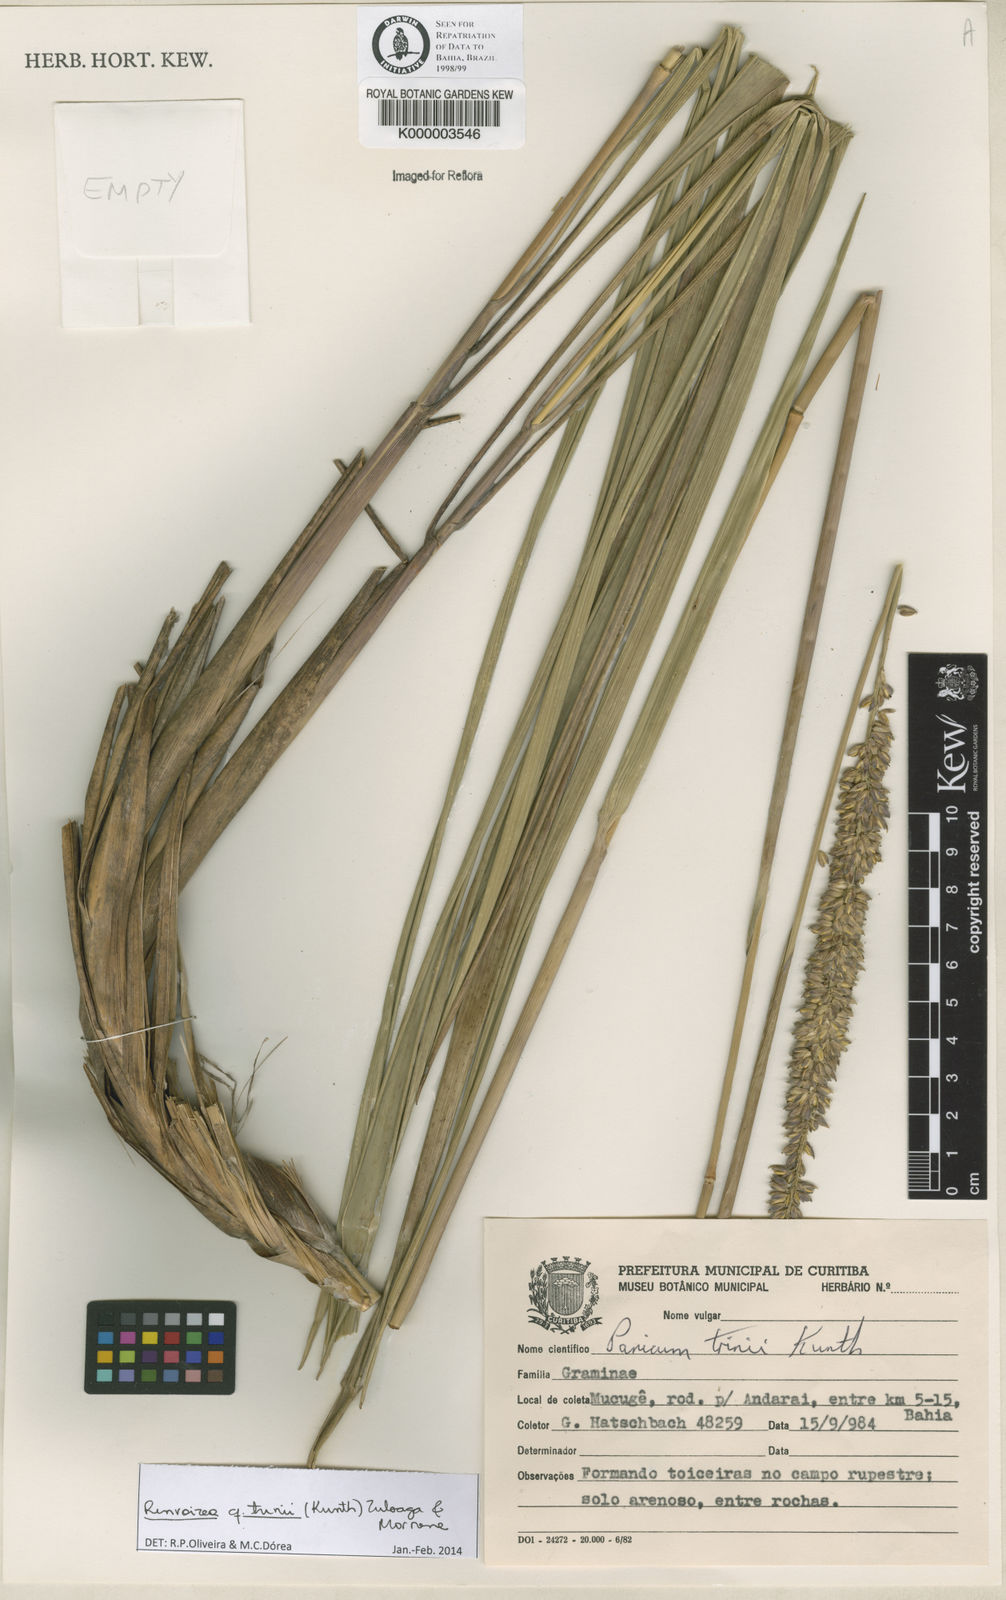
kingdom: Plantae
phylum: Tracheophyta
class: Liliopsida
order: Poales
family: Poaceae
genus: Renvoizea
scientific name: Renvoizea trinii
